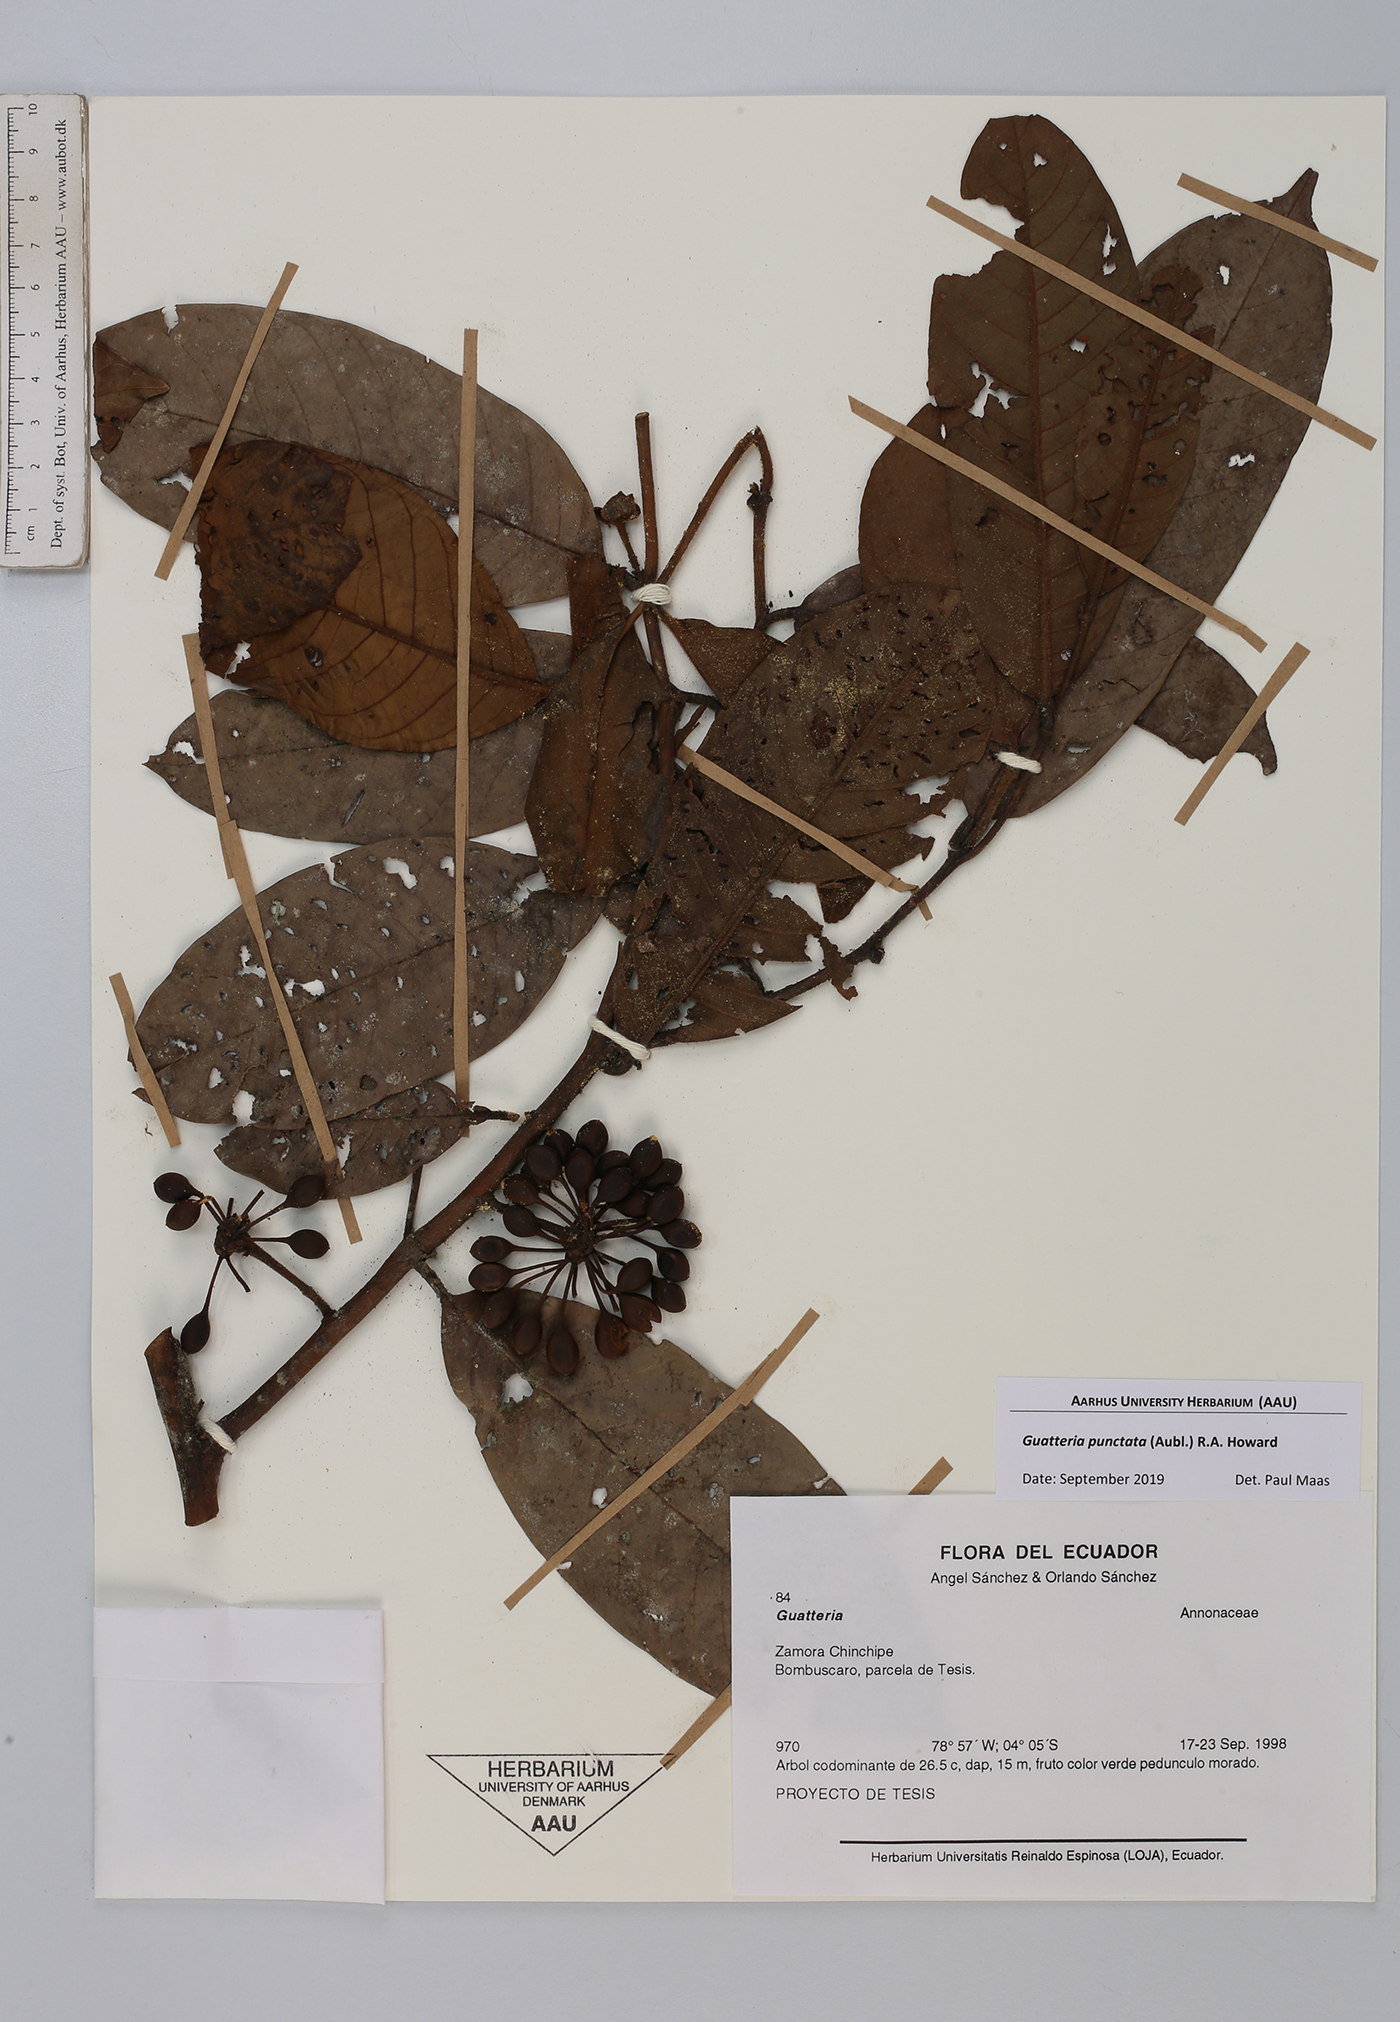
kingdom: Plantae
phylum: Tracheophyta
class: Magnoliopsida
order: Magnoliales
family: Annonaceae
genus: Guatteria
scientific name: Guatteria punctata
